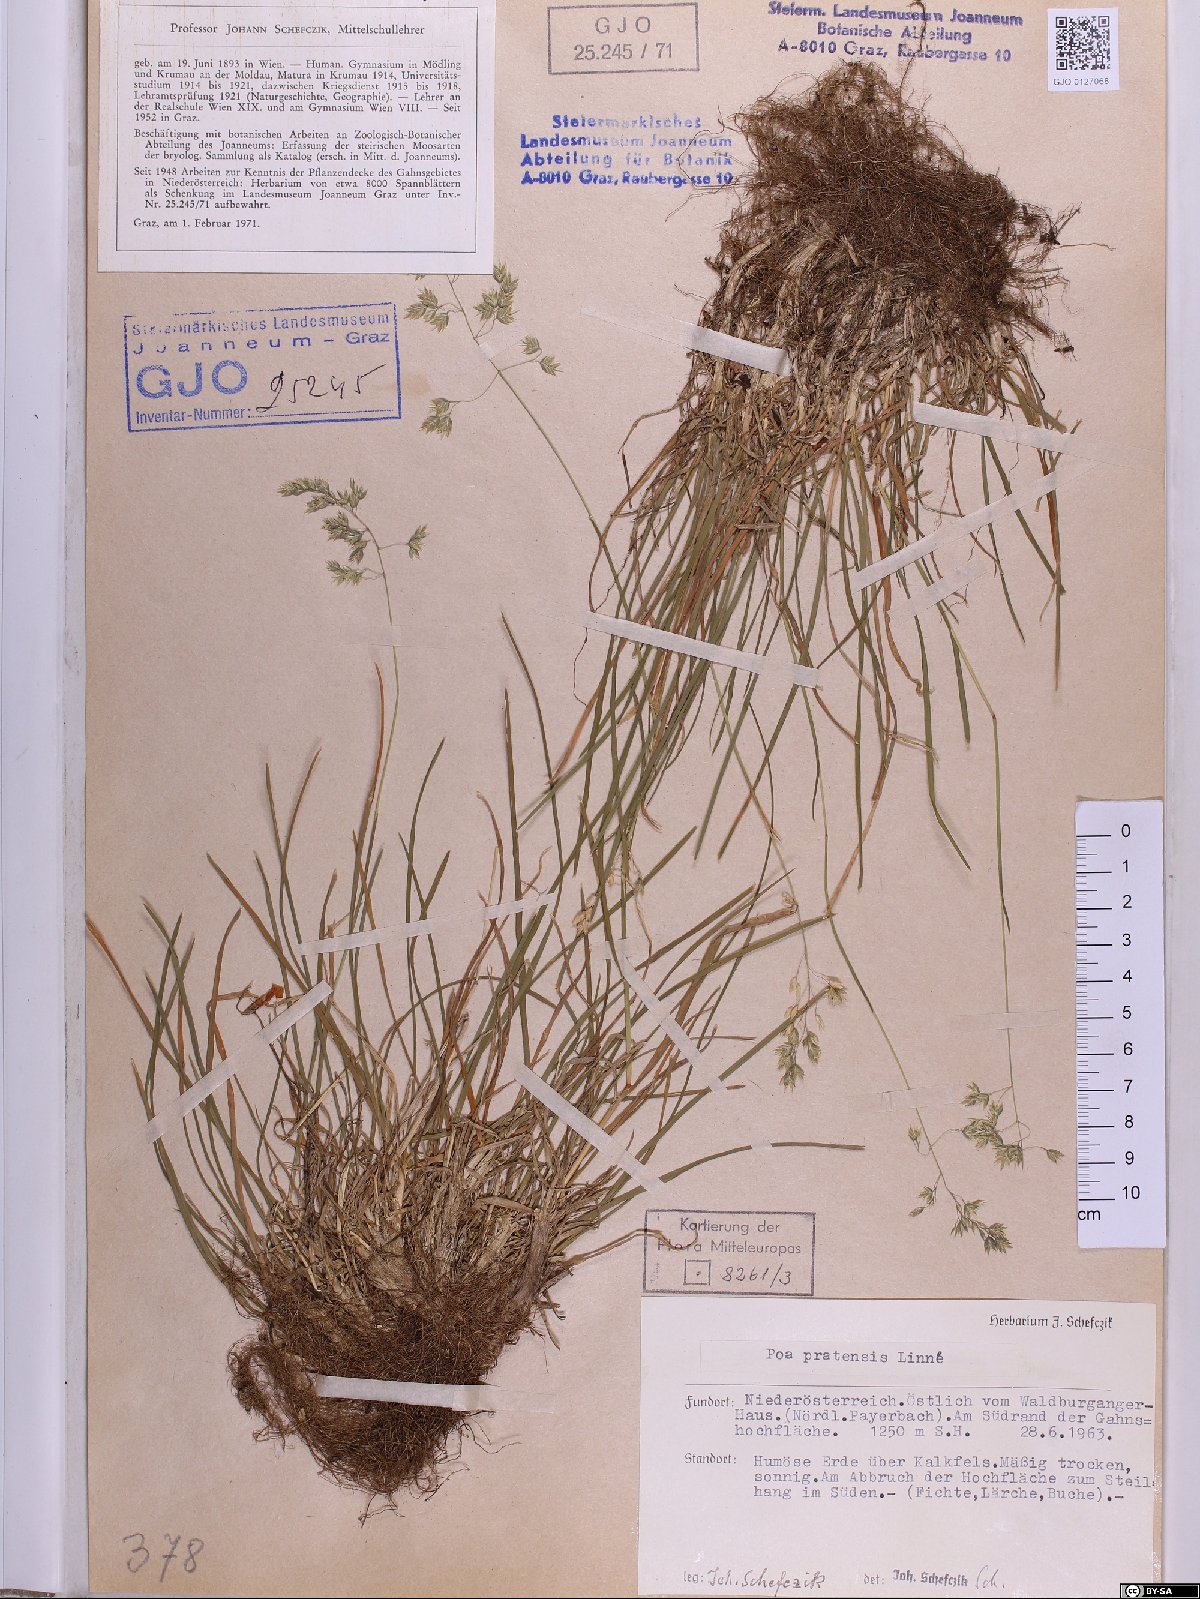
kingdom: Plantae
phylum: Tracheophyta
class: Liliopsida
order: Poales
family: Poaceae
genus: Poa
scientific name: Poa pratensis
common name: Kentucky bluegrass
